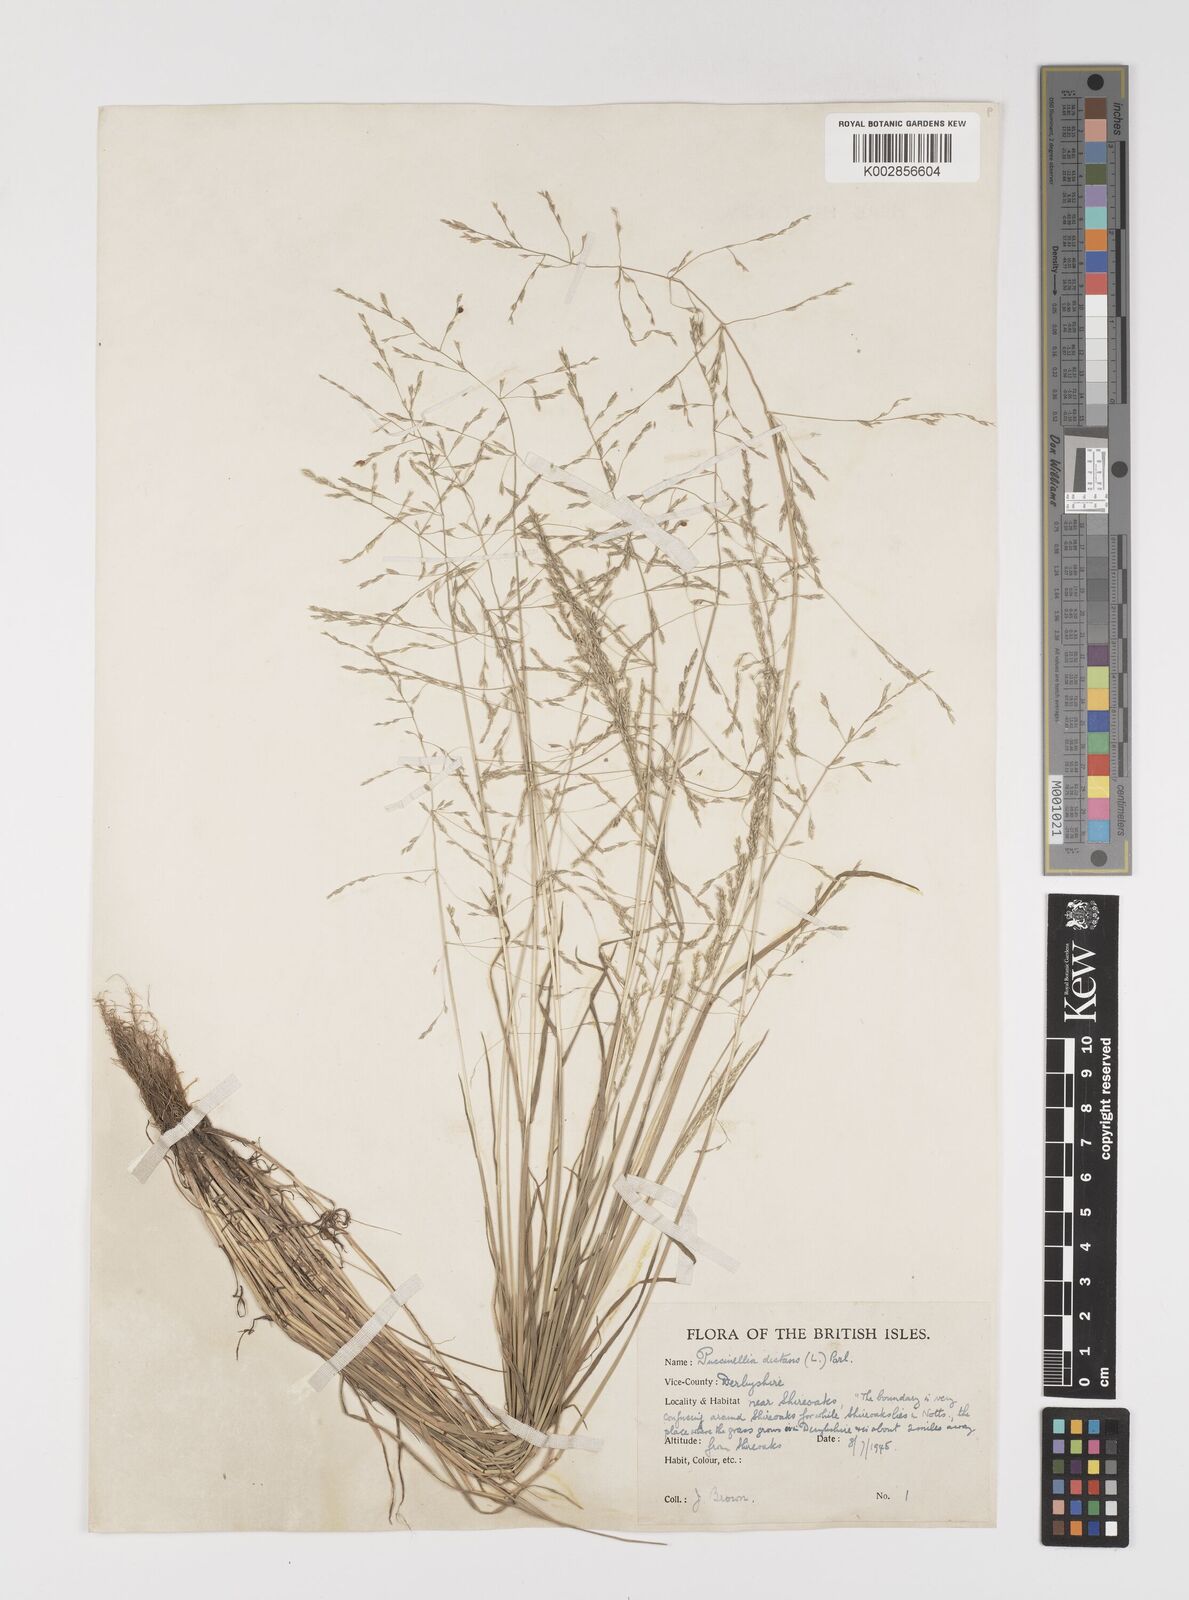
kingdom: Plantae
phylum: Tracheophyta
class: Liliopsida
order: Poales
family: Poaceae
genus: Puccinellia
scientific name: Puccinellia distans
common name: Weeping alkaligrass
